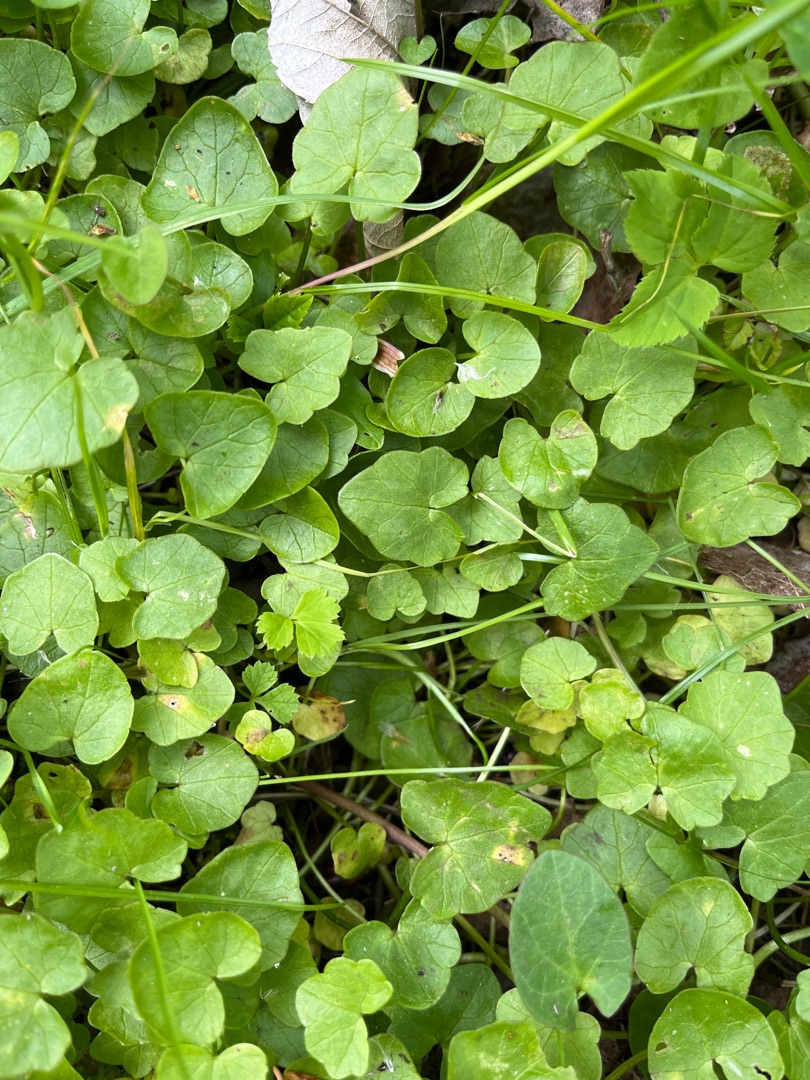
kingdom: Plantae
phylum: Tracheophyta
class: Magnoliopsida
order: Ranunculales
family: Ranunculaceae
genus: Ficaria
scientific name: Ficaria verna
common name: Vorterod
